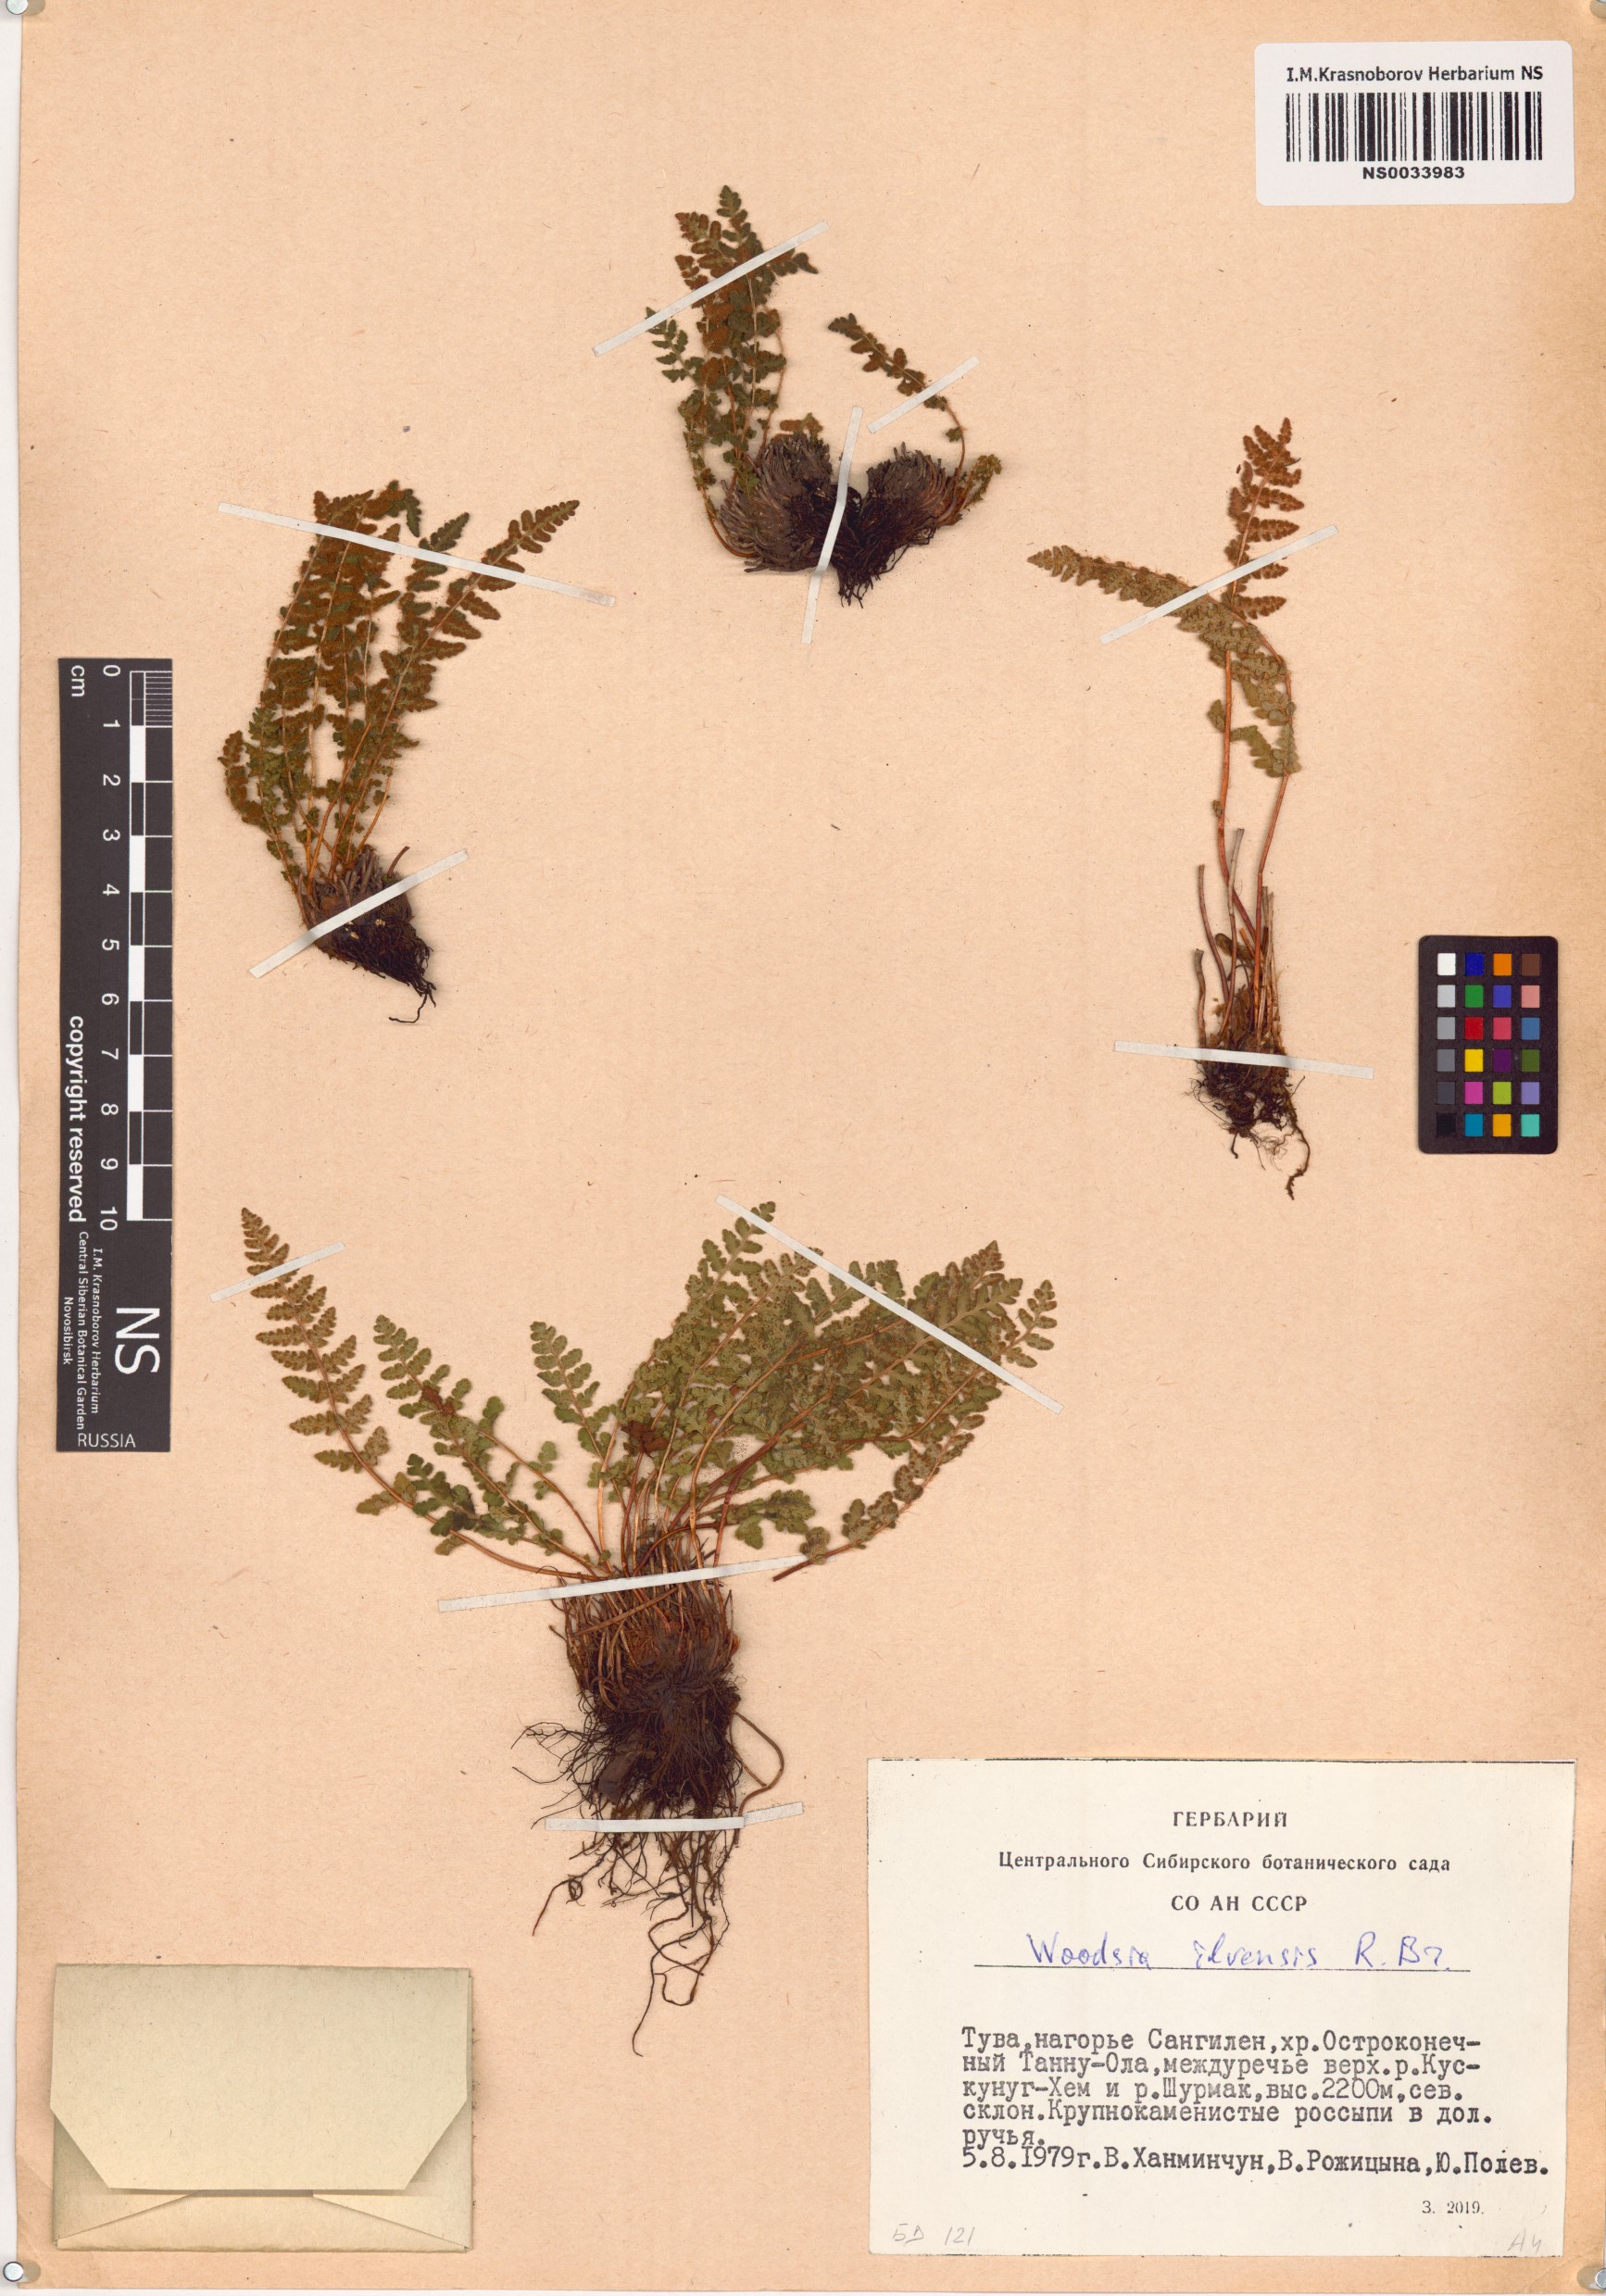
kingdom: Plantae
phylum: Tracheophyta
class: Polypodiopsida
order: Polypodiales
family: Woodsiaceae
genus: Woodsia
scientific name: Woodsia ilvensis
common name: Fragrant woodsia
